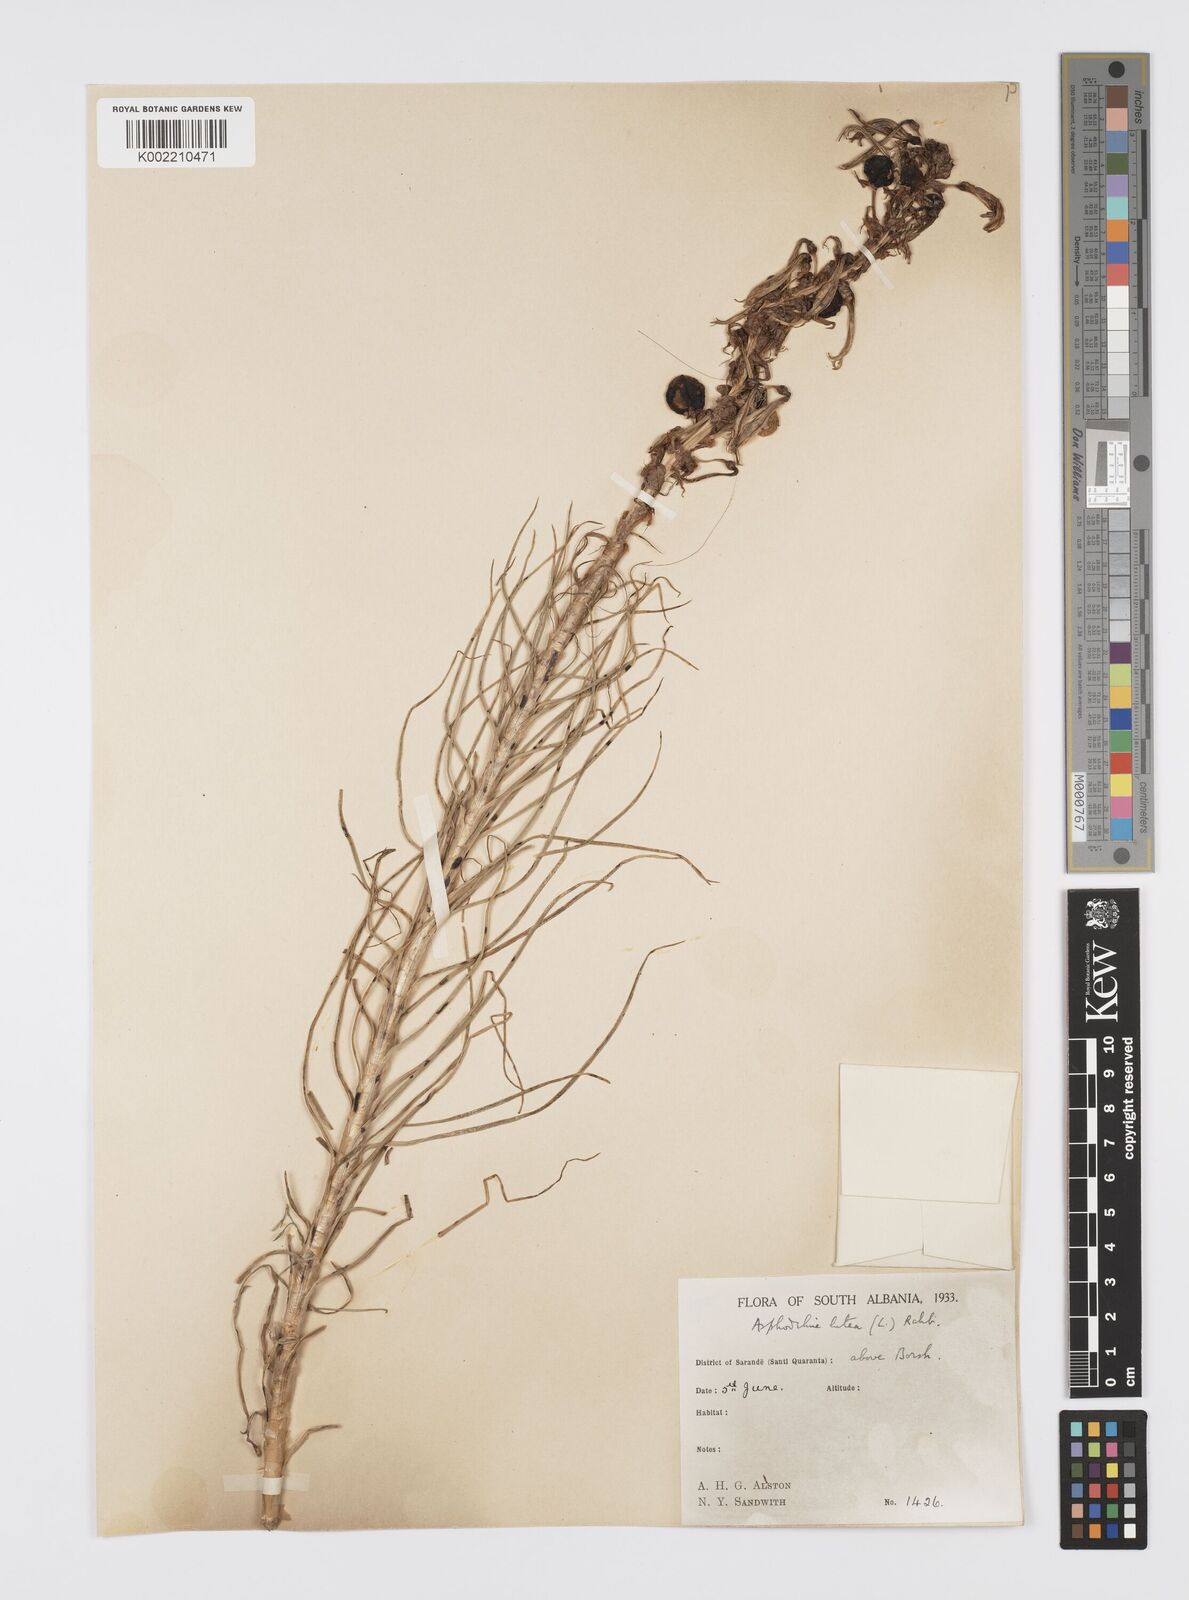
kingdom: Plantae
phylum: Tracheophyta
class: Liliopsida
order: Asparagales
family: Asphodelaceae
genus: Asphodeline
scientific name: Asphodeline lutea
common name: Yellow asphodel
